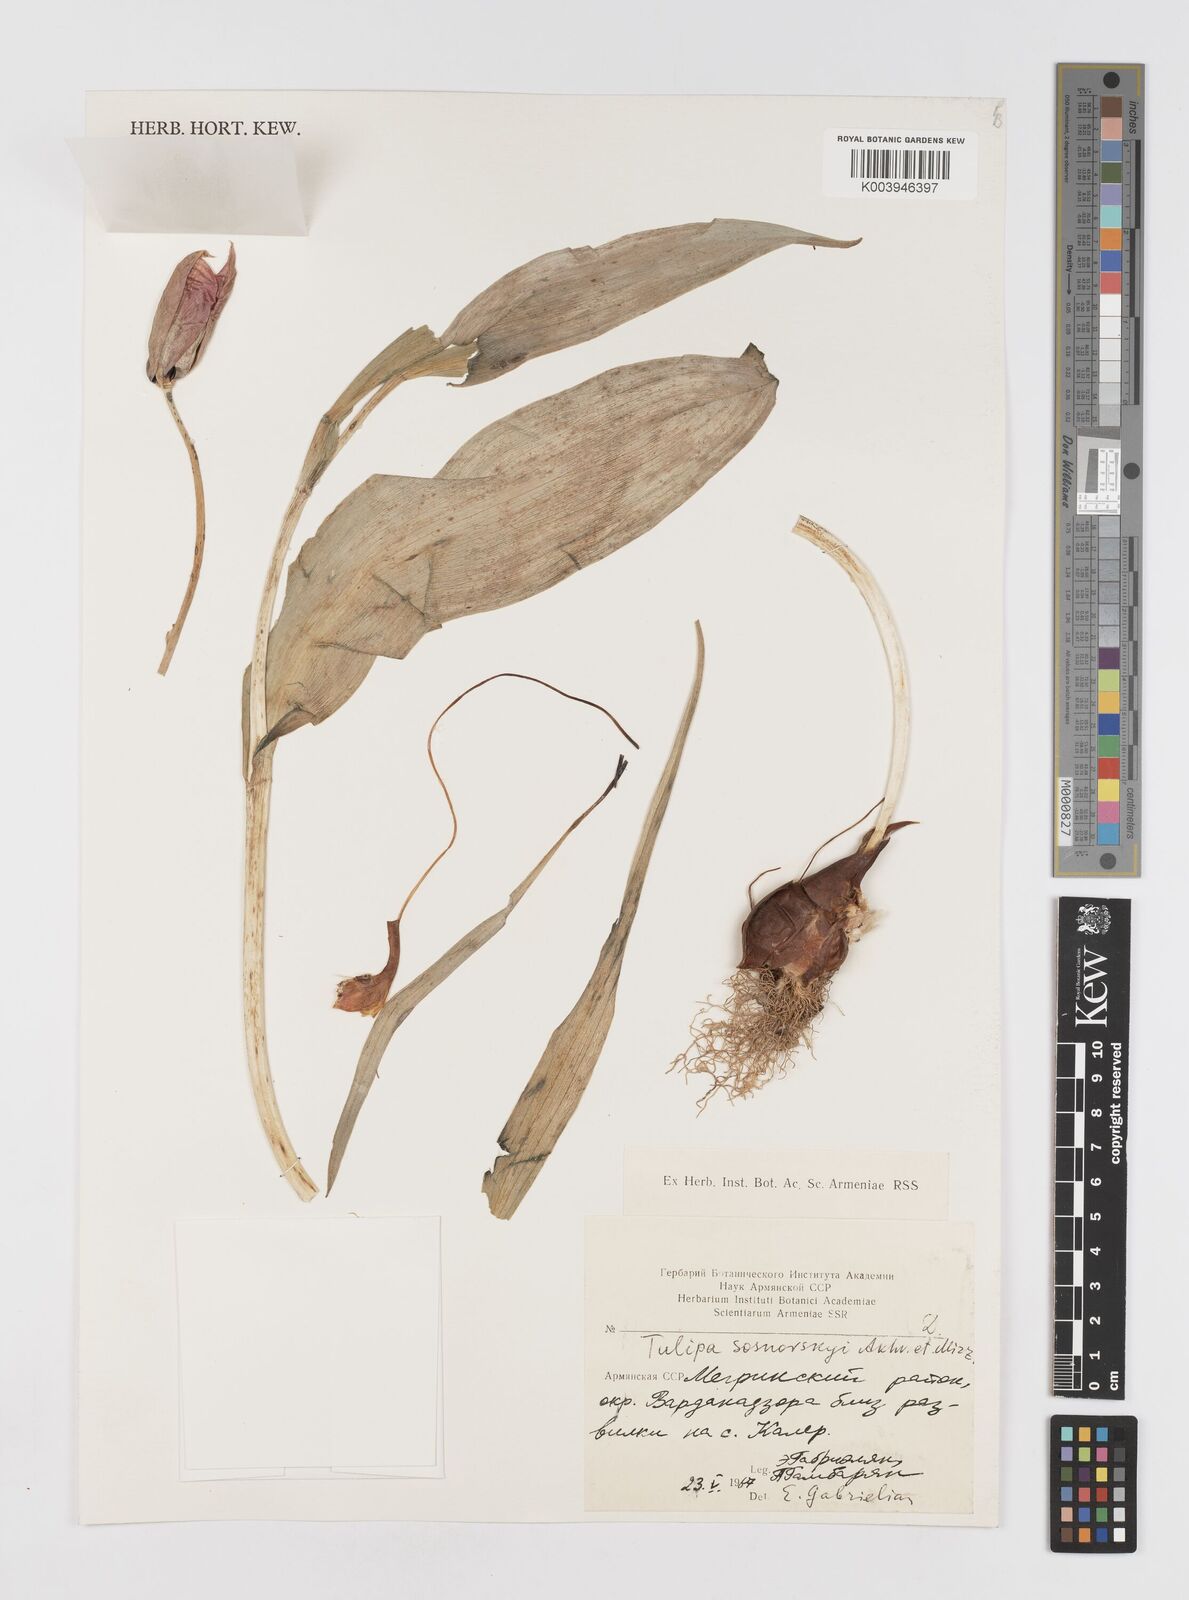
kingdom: Plantae
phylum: Tracheophyta
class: Liliopsida
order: Liliales
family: Liliaceae
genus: Tulipa
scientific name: Tulipa sosnowskyi
